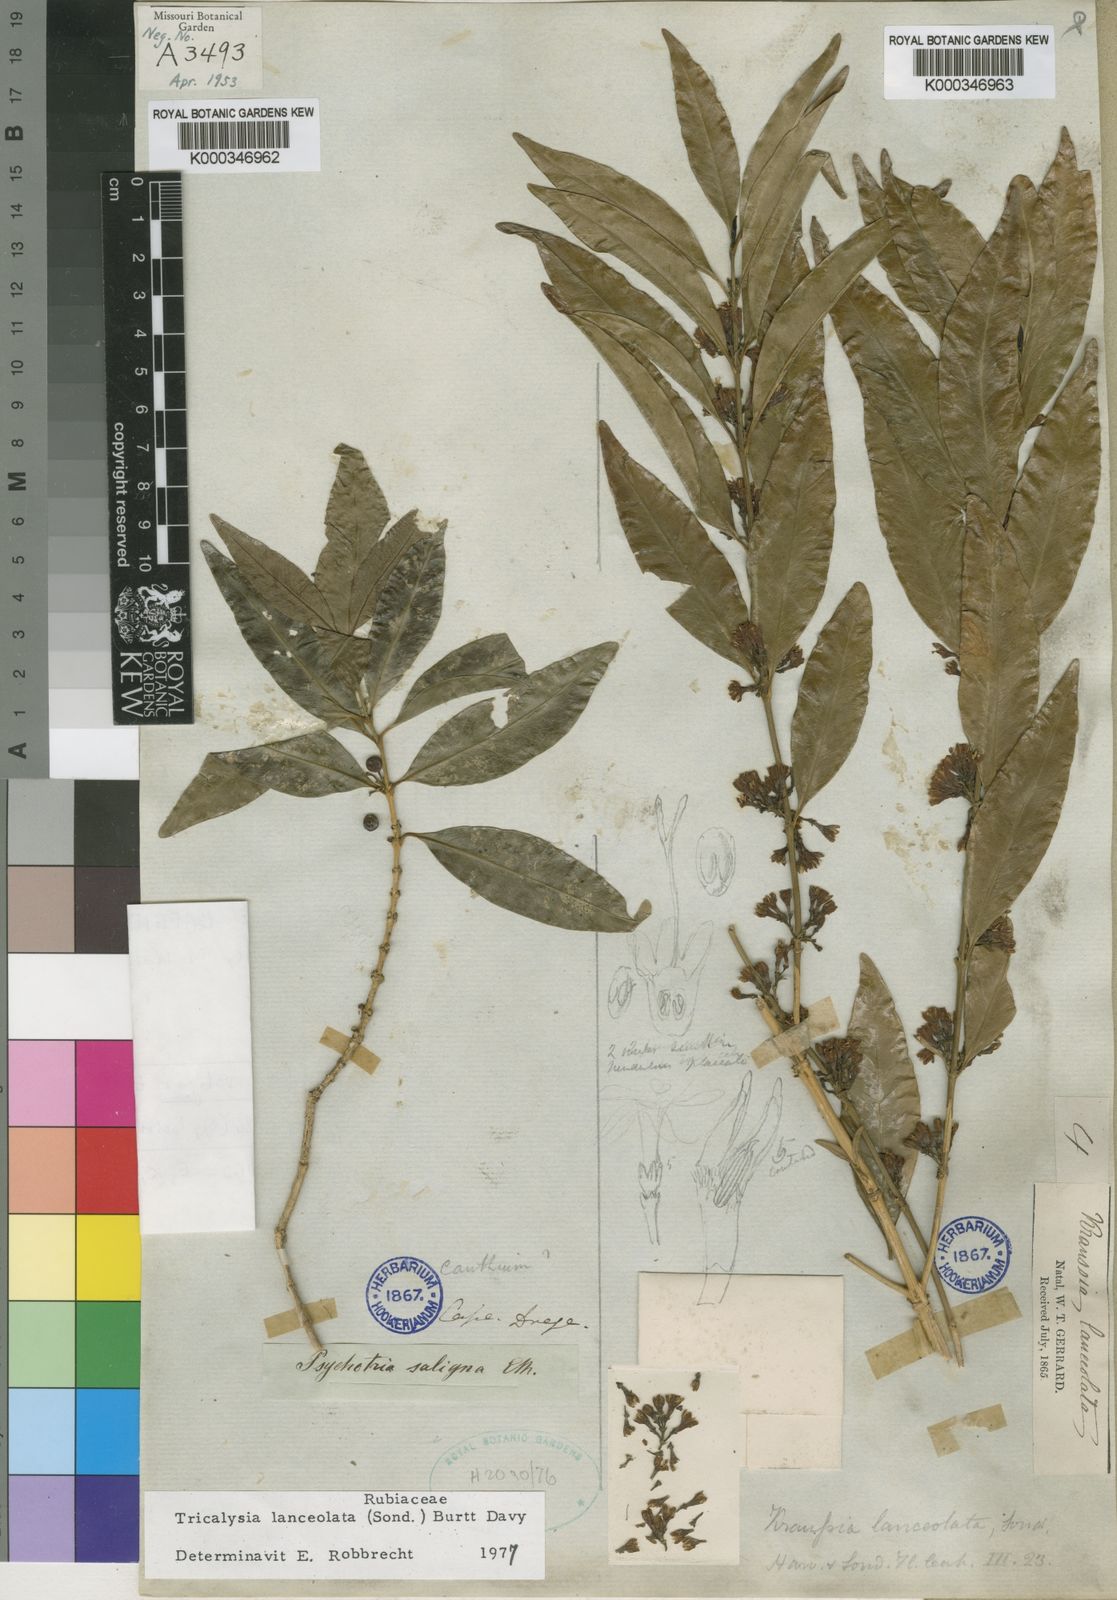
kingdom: Plantae
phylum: Tracheophyta
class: Magnoliopsida
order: Gentianales
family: Rubiaceae
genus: Empogona
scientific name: Empogona lanceolata
